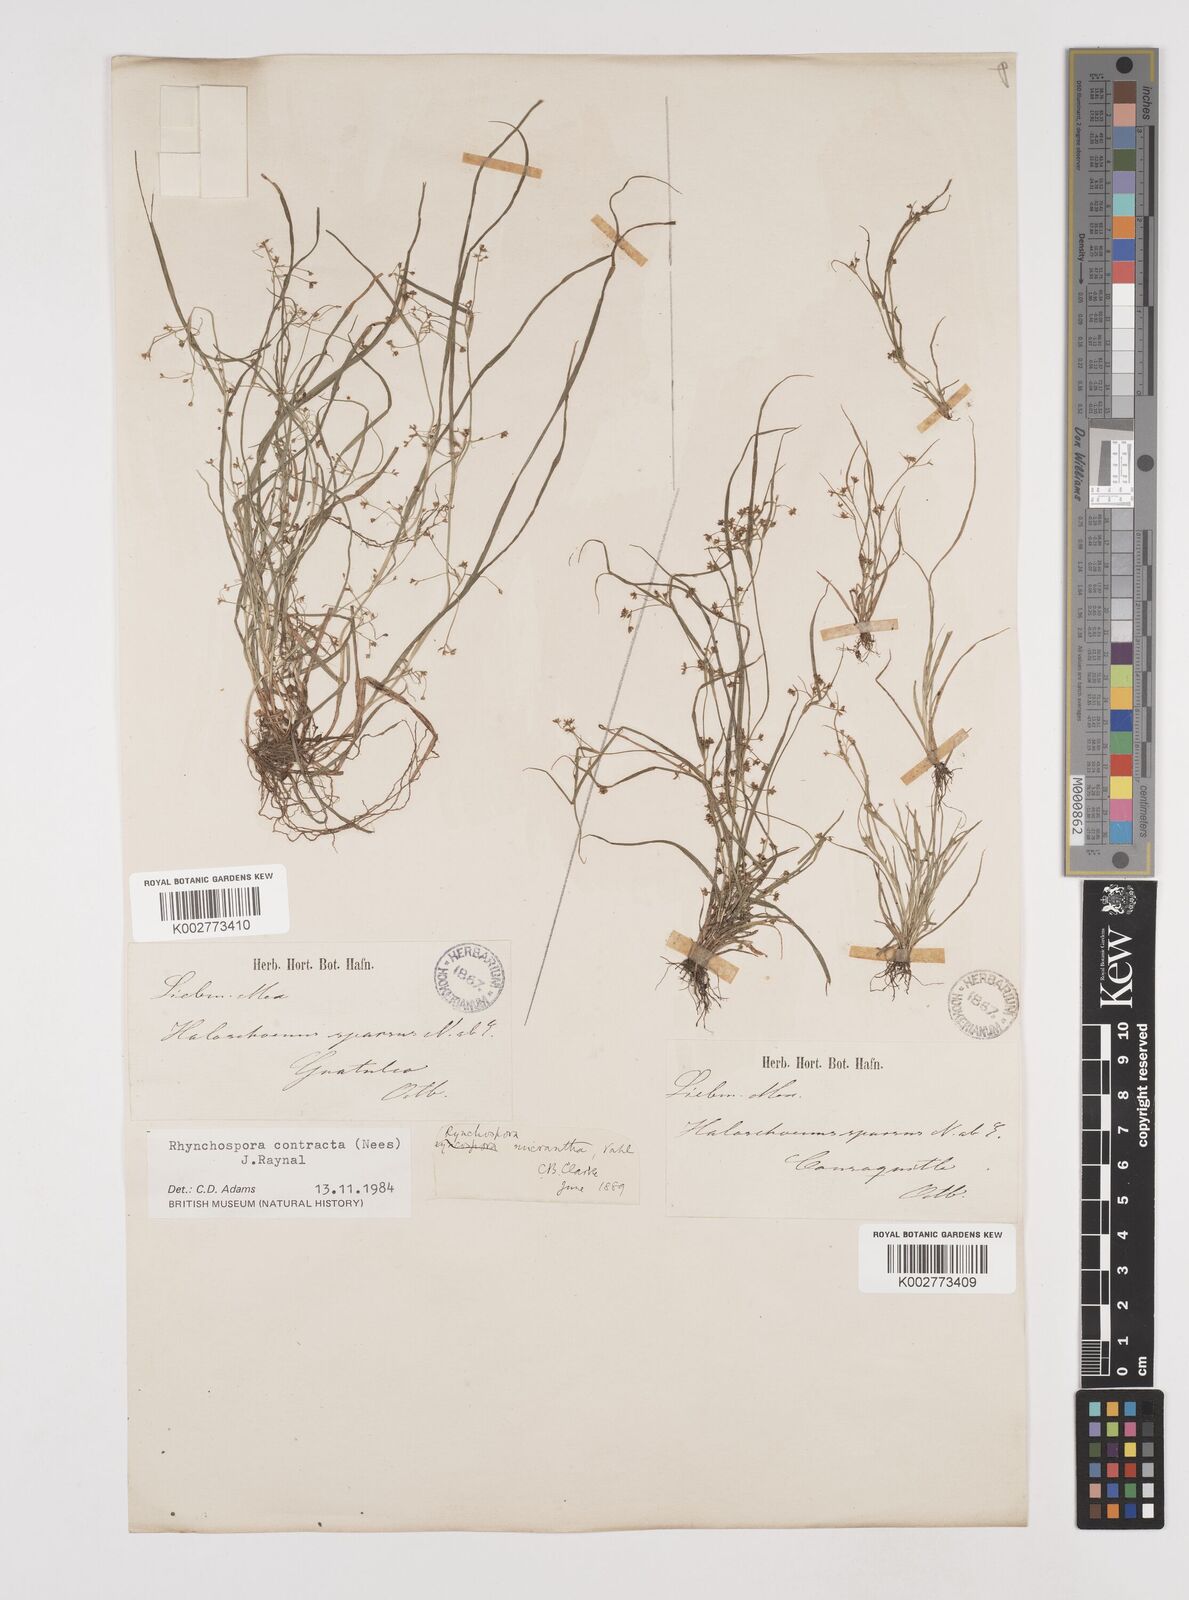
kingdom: Plantae
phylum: Tracheophyta
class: Liliopsida
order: Poales
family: Cyperaceae
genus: Rhynchospora
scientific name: Rhynchospora contracta
